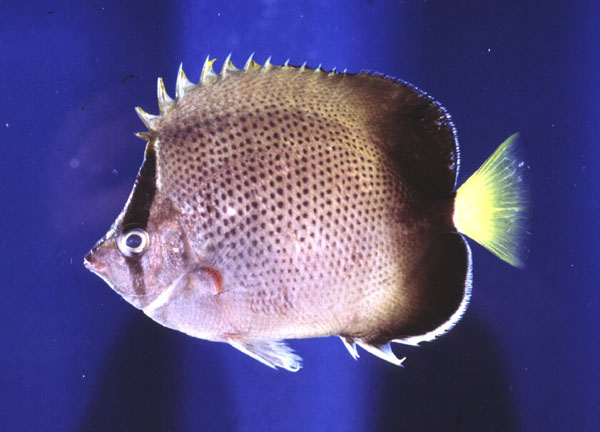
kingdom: Animalia
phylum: Chordata
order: Perciformes
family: Chaetodontidae
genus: Chaetodon
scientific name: Chaetodon dolosus
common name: African butterflyfish
